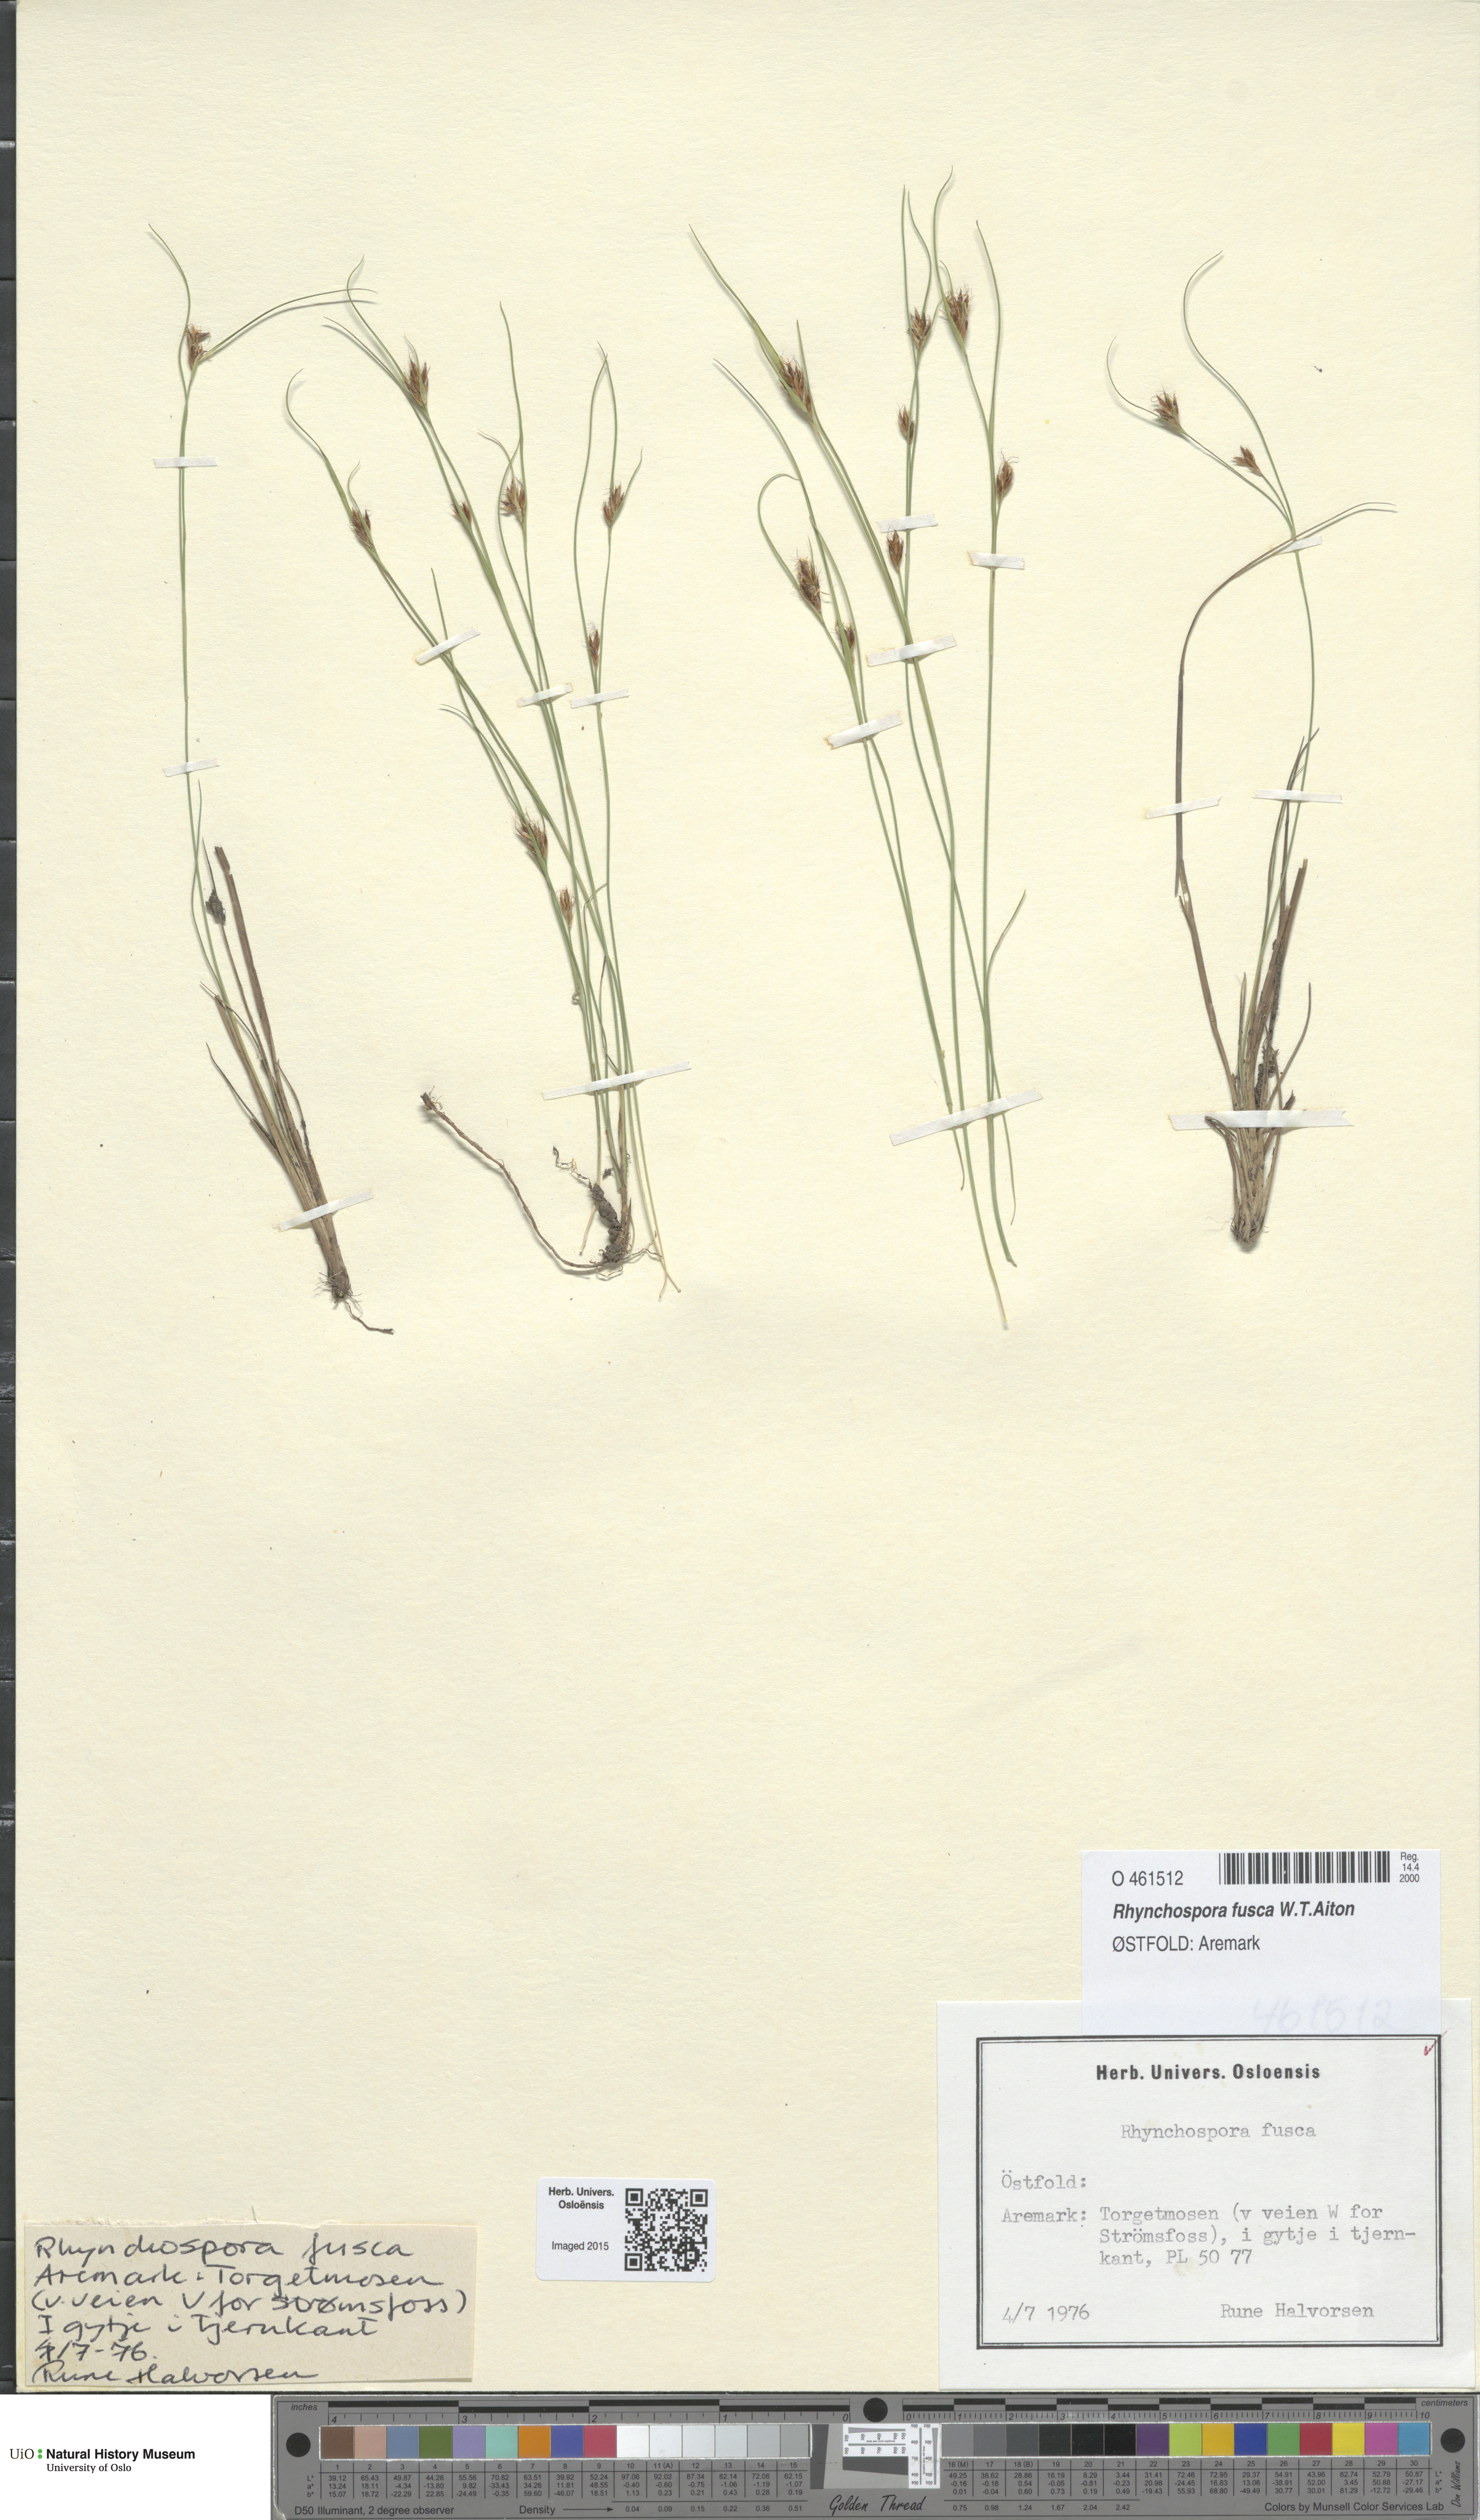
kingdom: Plantae
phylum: Tracheophyta
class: Liliopsida
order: Poales
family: Cyperaceae
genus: Rhynchospora
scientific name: Rhynchospora fusca
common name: Brown beak-sedge
